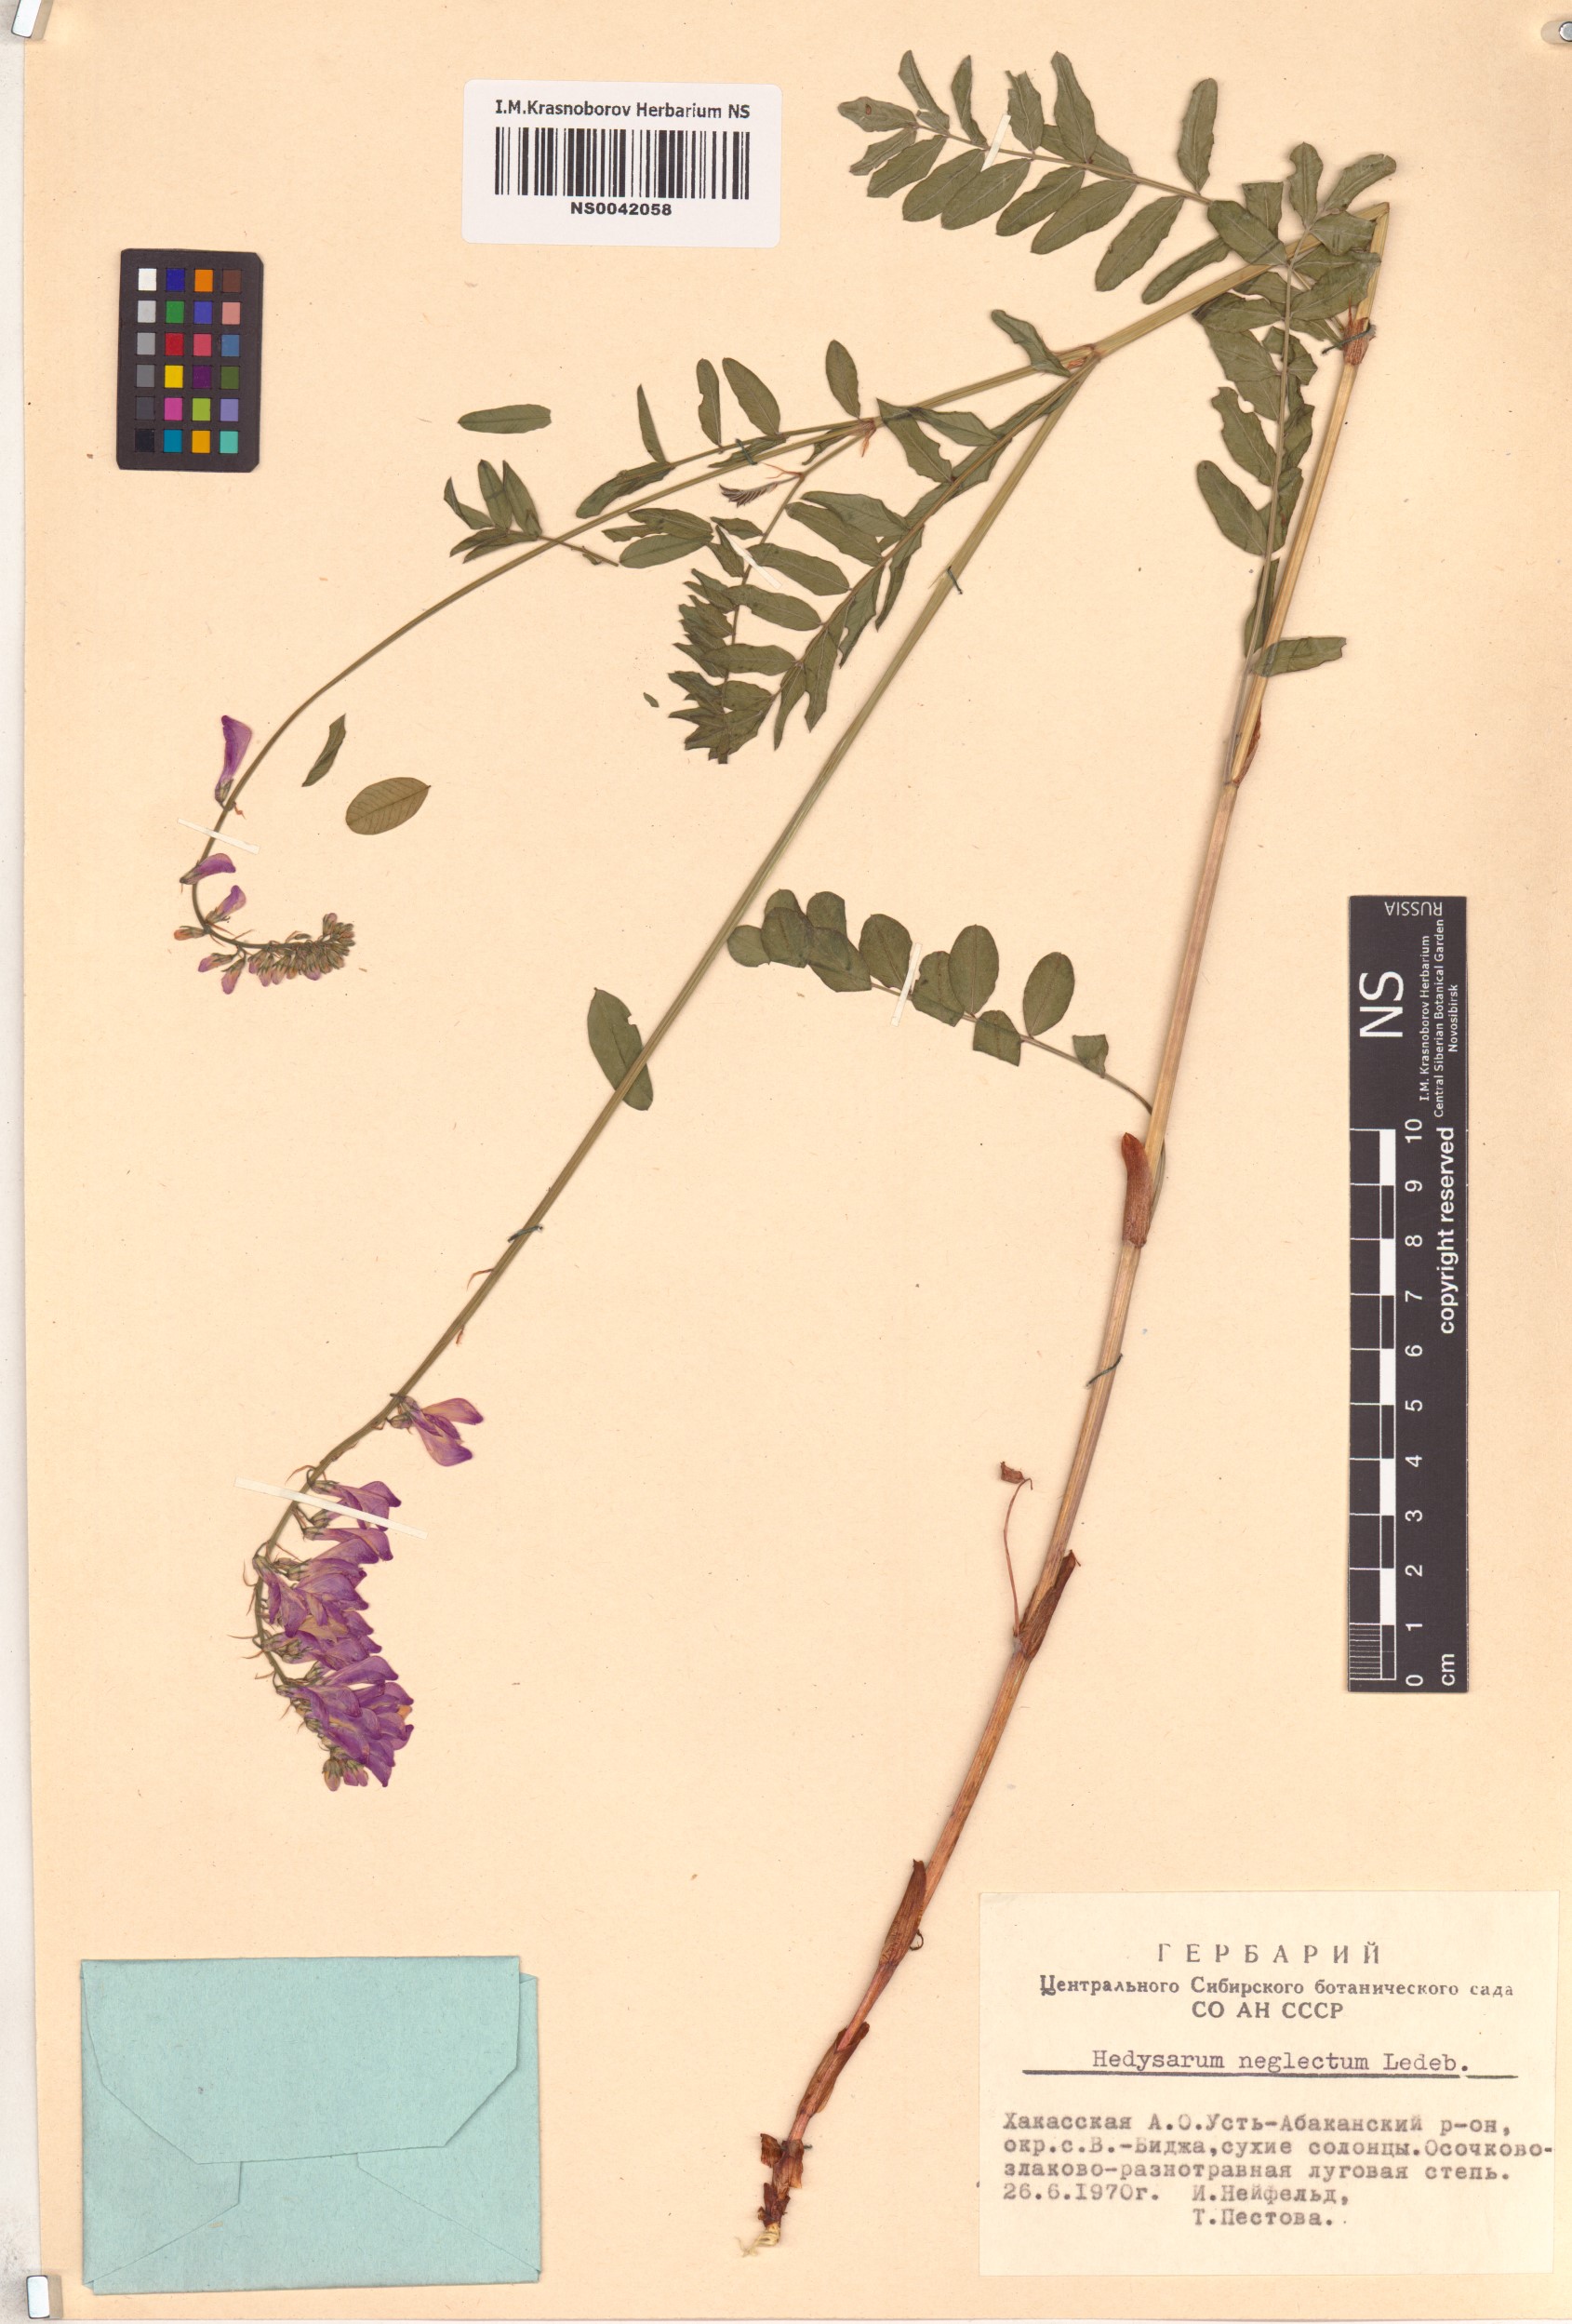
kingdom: Plantae
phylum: Tracheophyta
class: Magnoliopsida
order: Fabales
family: Fabaceae
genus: Hedysarum
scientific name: Hedysarum neglectum
